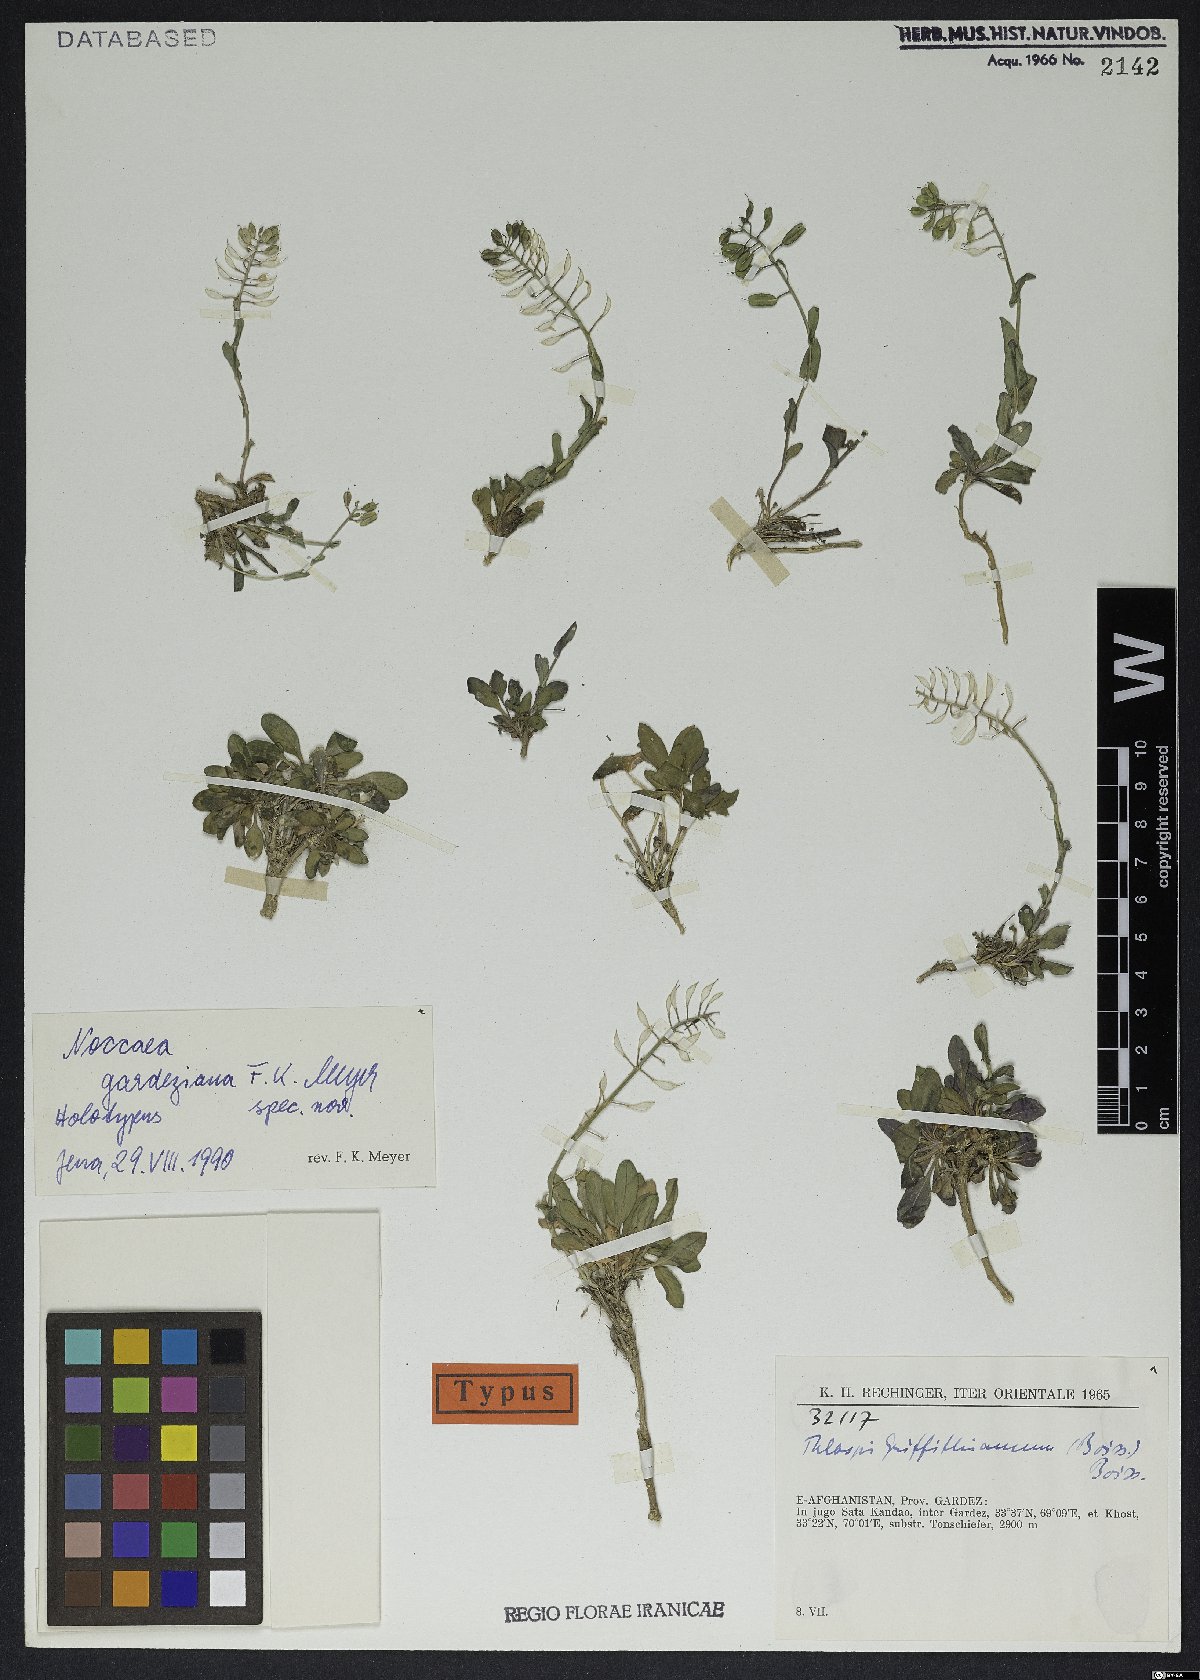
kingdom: Plantae
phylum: Tracheophyta
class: Magnoliopsida
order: Brassicales
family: Brassicaceae
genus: Noccaea
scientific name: Noccaea gardeziana
